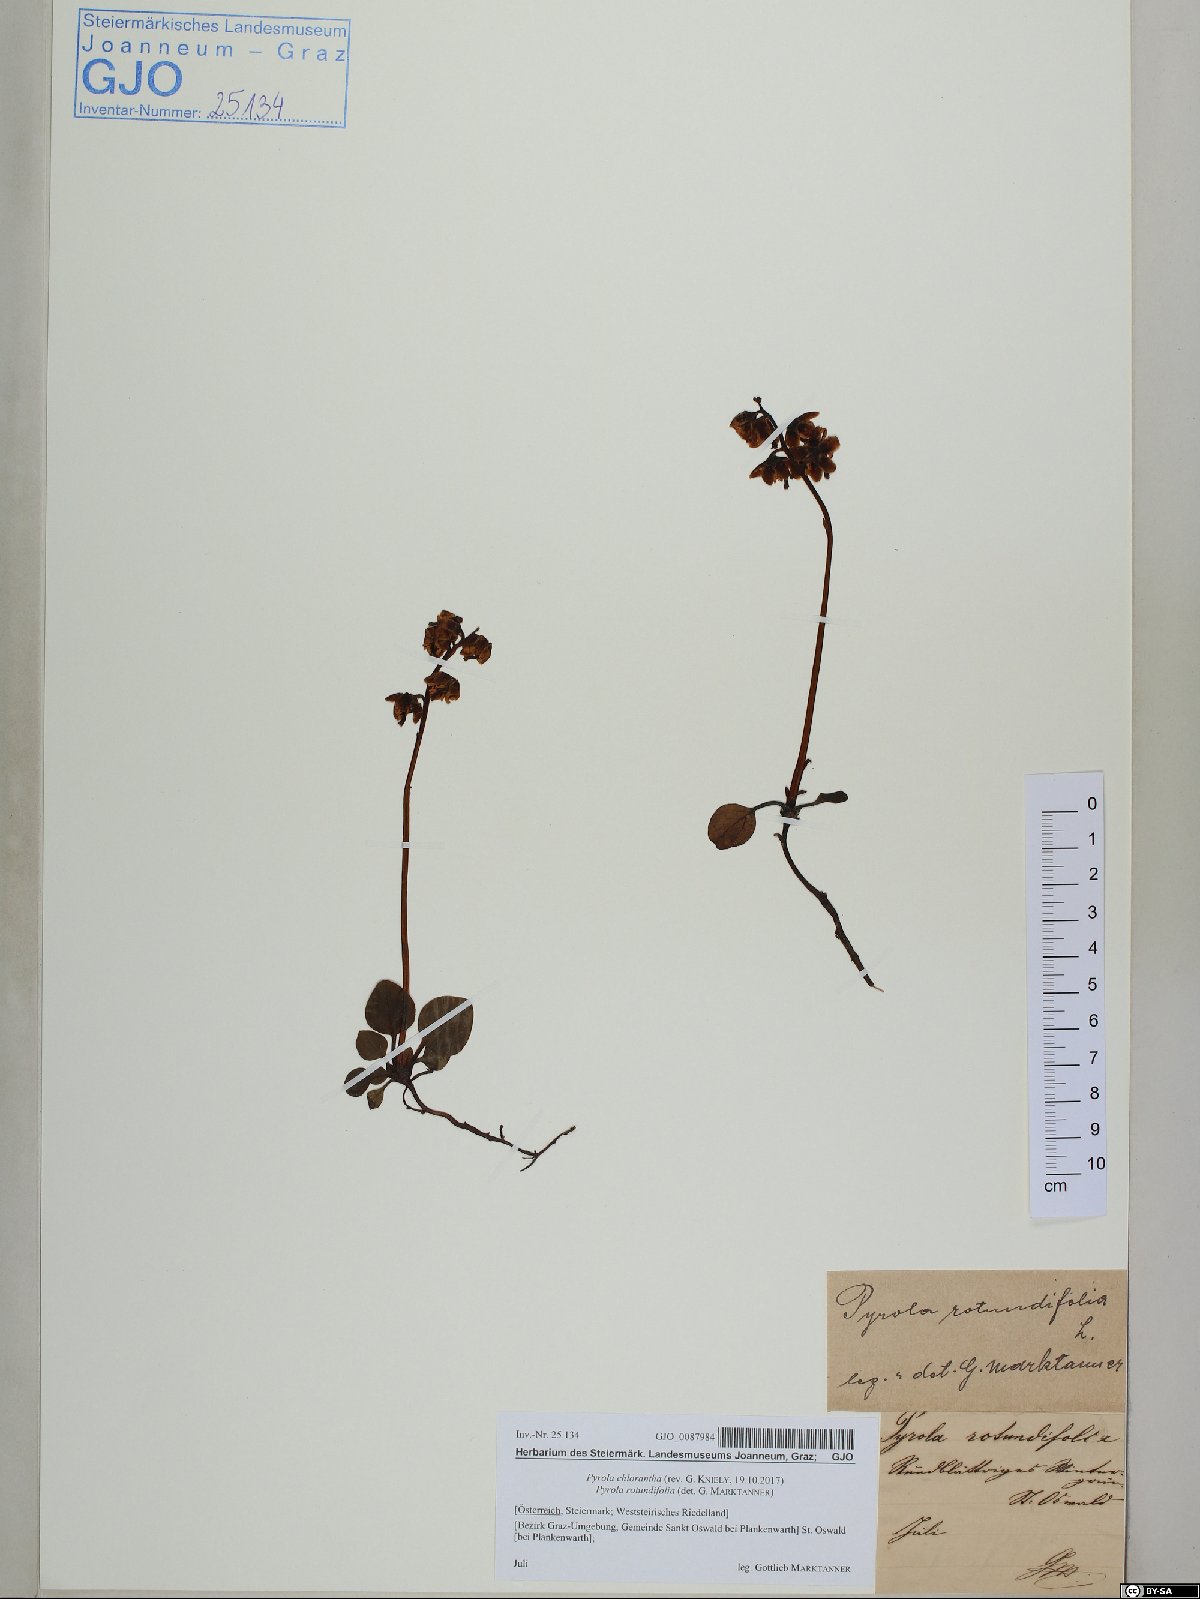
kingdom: Plantae
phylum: Tracheophyta
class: Magnoliopsida
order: Ericales
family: Ericaceae
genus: Pyrola
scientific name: Pyrola chlorantha
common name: Green wintergreen
